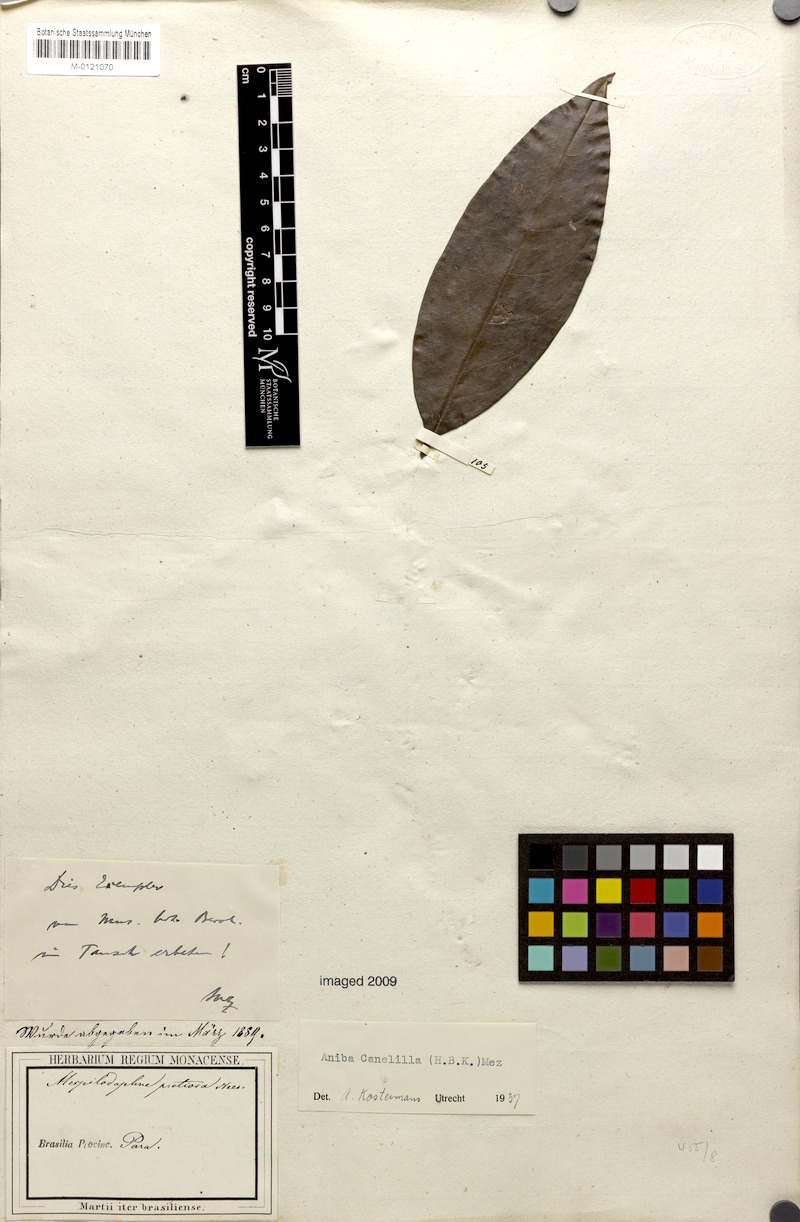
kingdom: Plantae
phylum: Tracheophyta
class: Magnoliopsida
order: Laurales
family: Lauraceae
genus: Aniba
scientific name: Aniba canelilla
